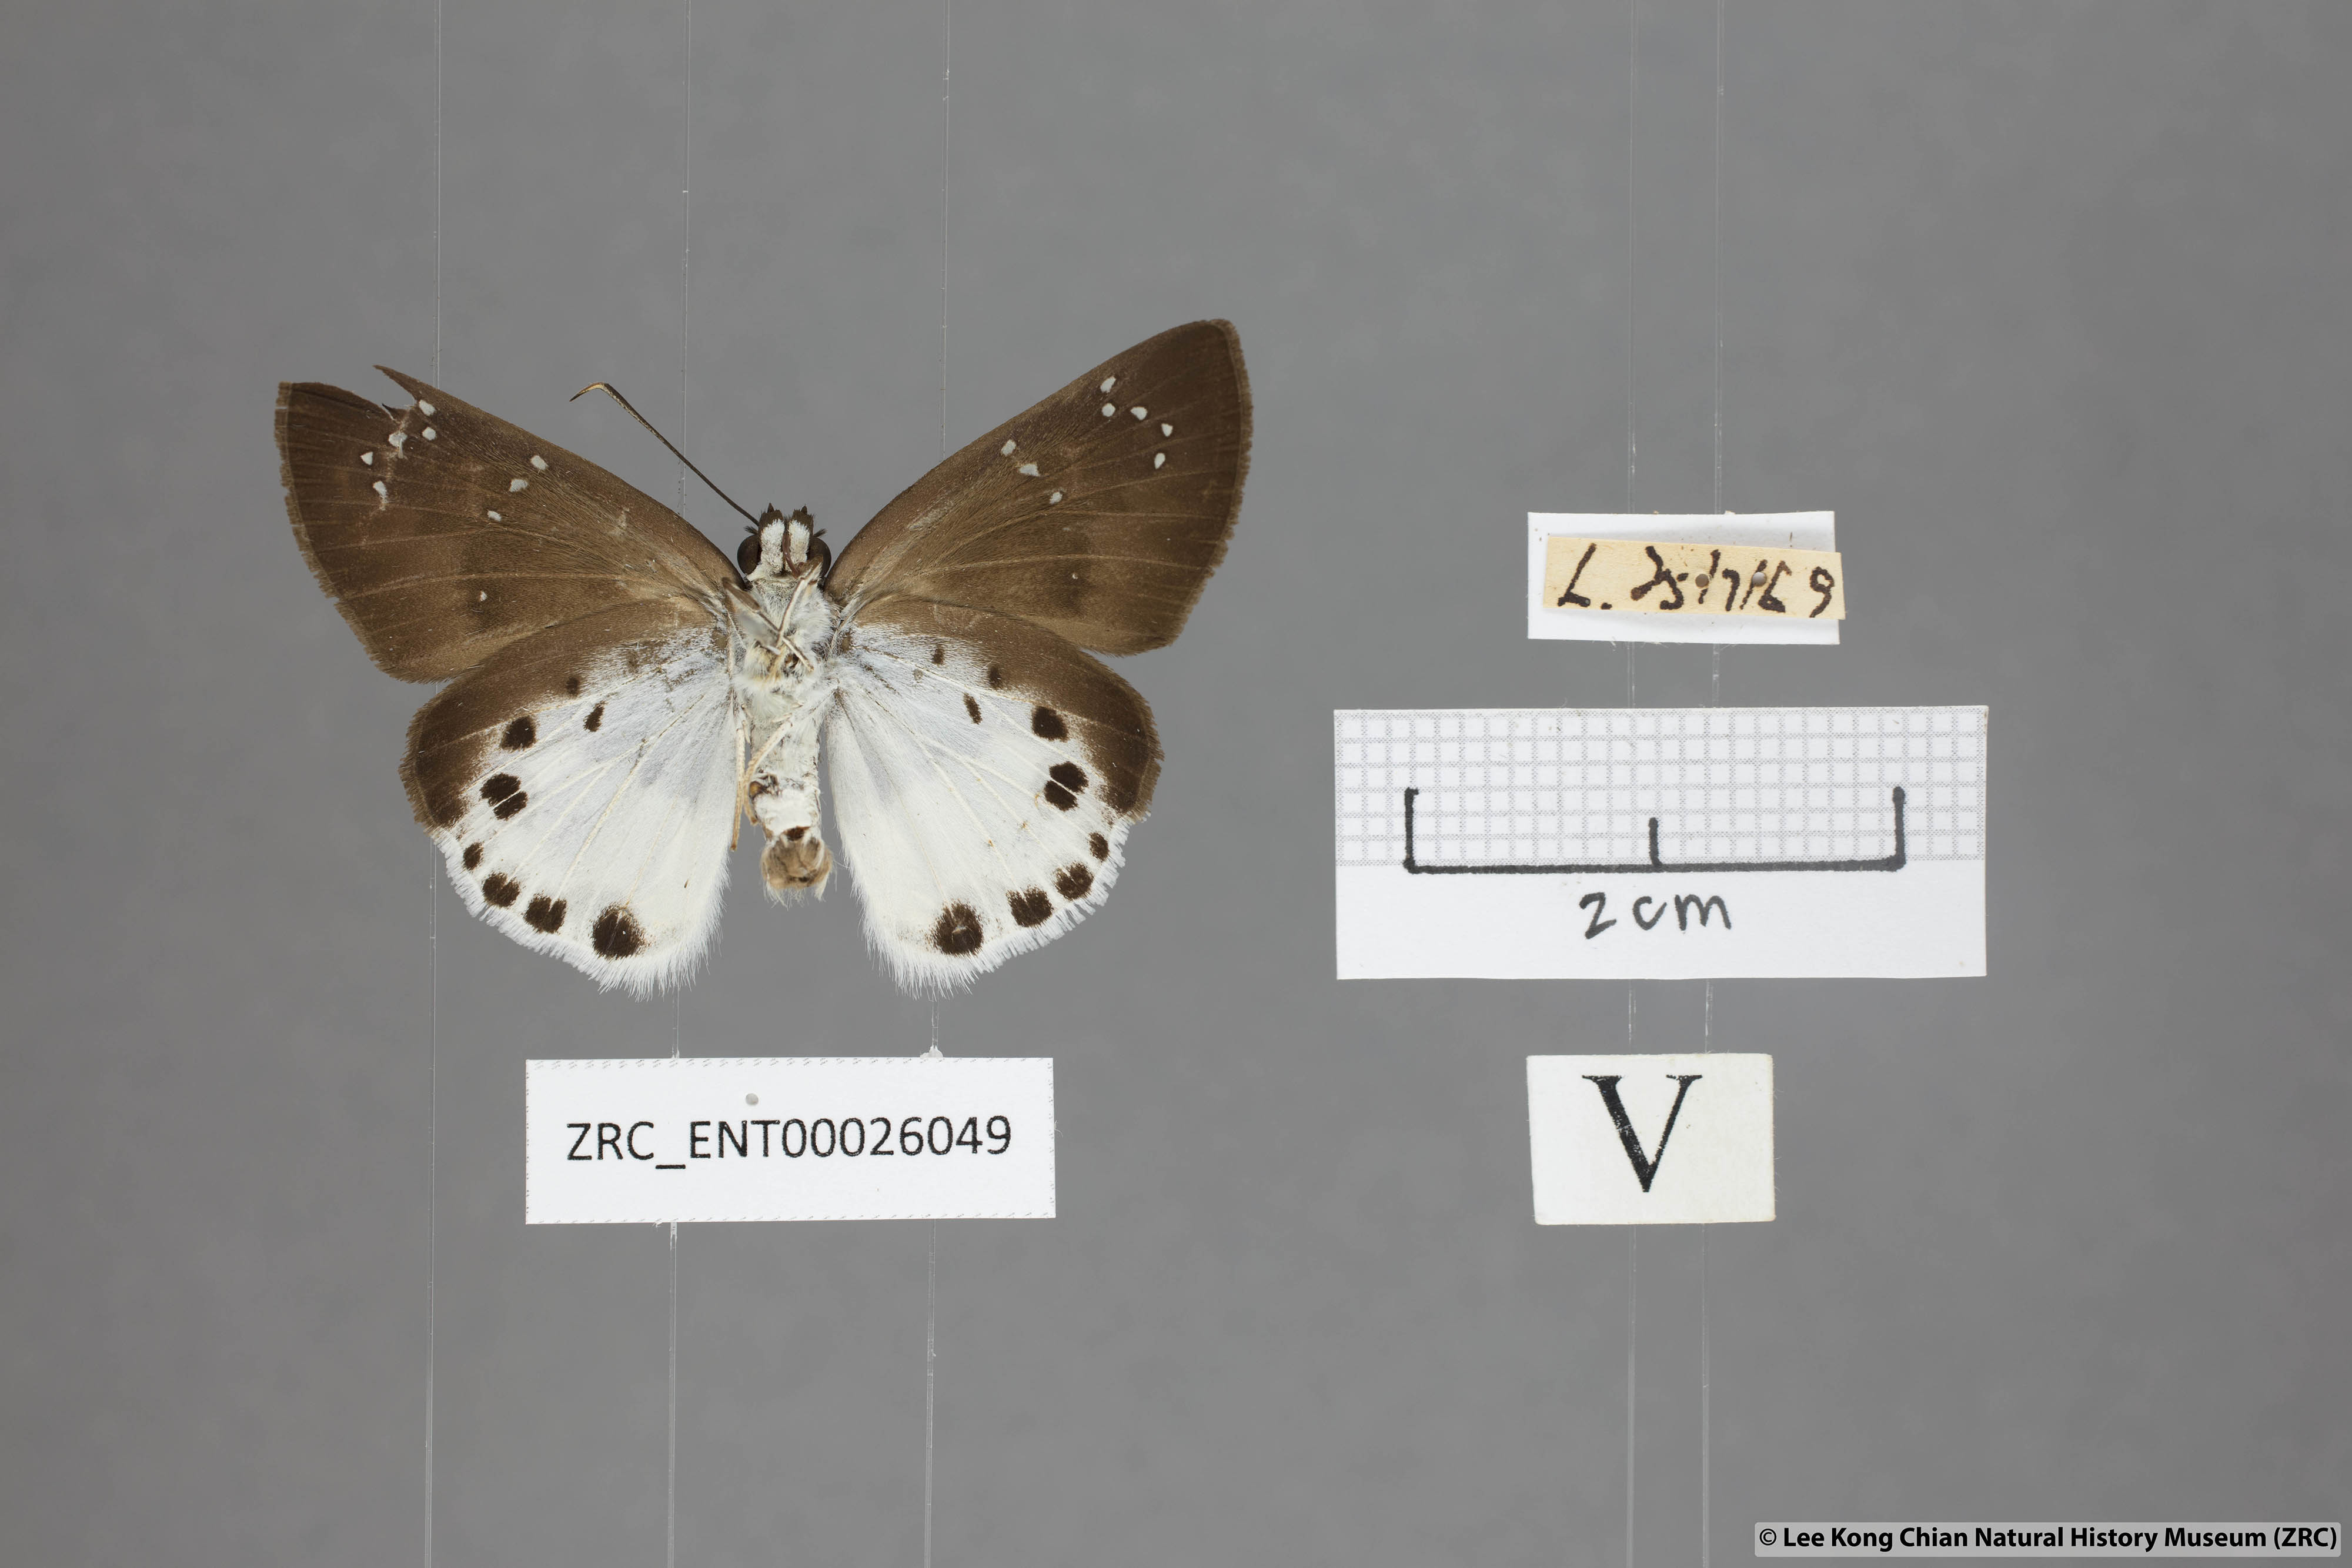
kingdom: Animalia
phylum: Arthropoda
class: Insecta
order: Lepidoptera
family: Hesperiidae
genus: Tagiades
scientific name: Tagiades litigiosa
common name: Water snow flat
